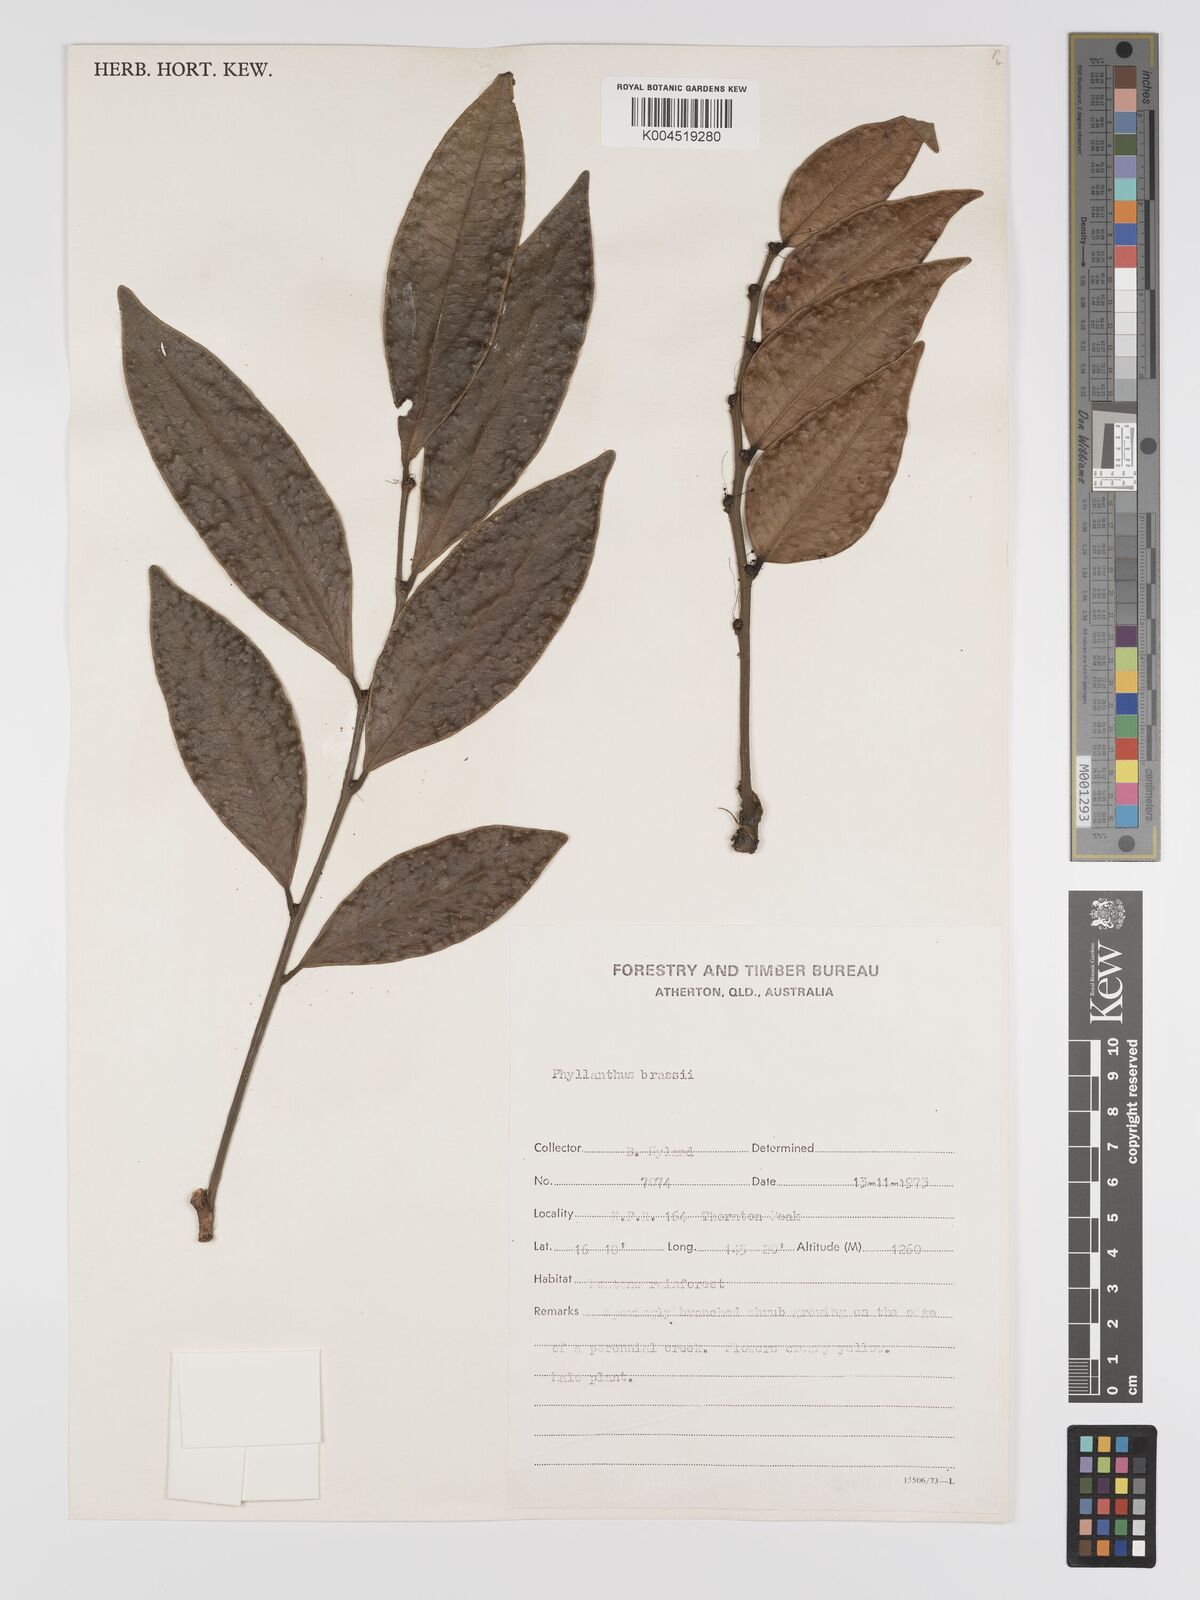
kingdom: Plantae
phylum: Tracheophyta
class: Magnoliopsida
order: Malpighiales
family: Phyllanthaceae
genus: Phyllanthus
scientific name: Phyllanthus brassii
